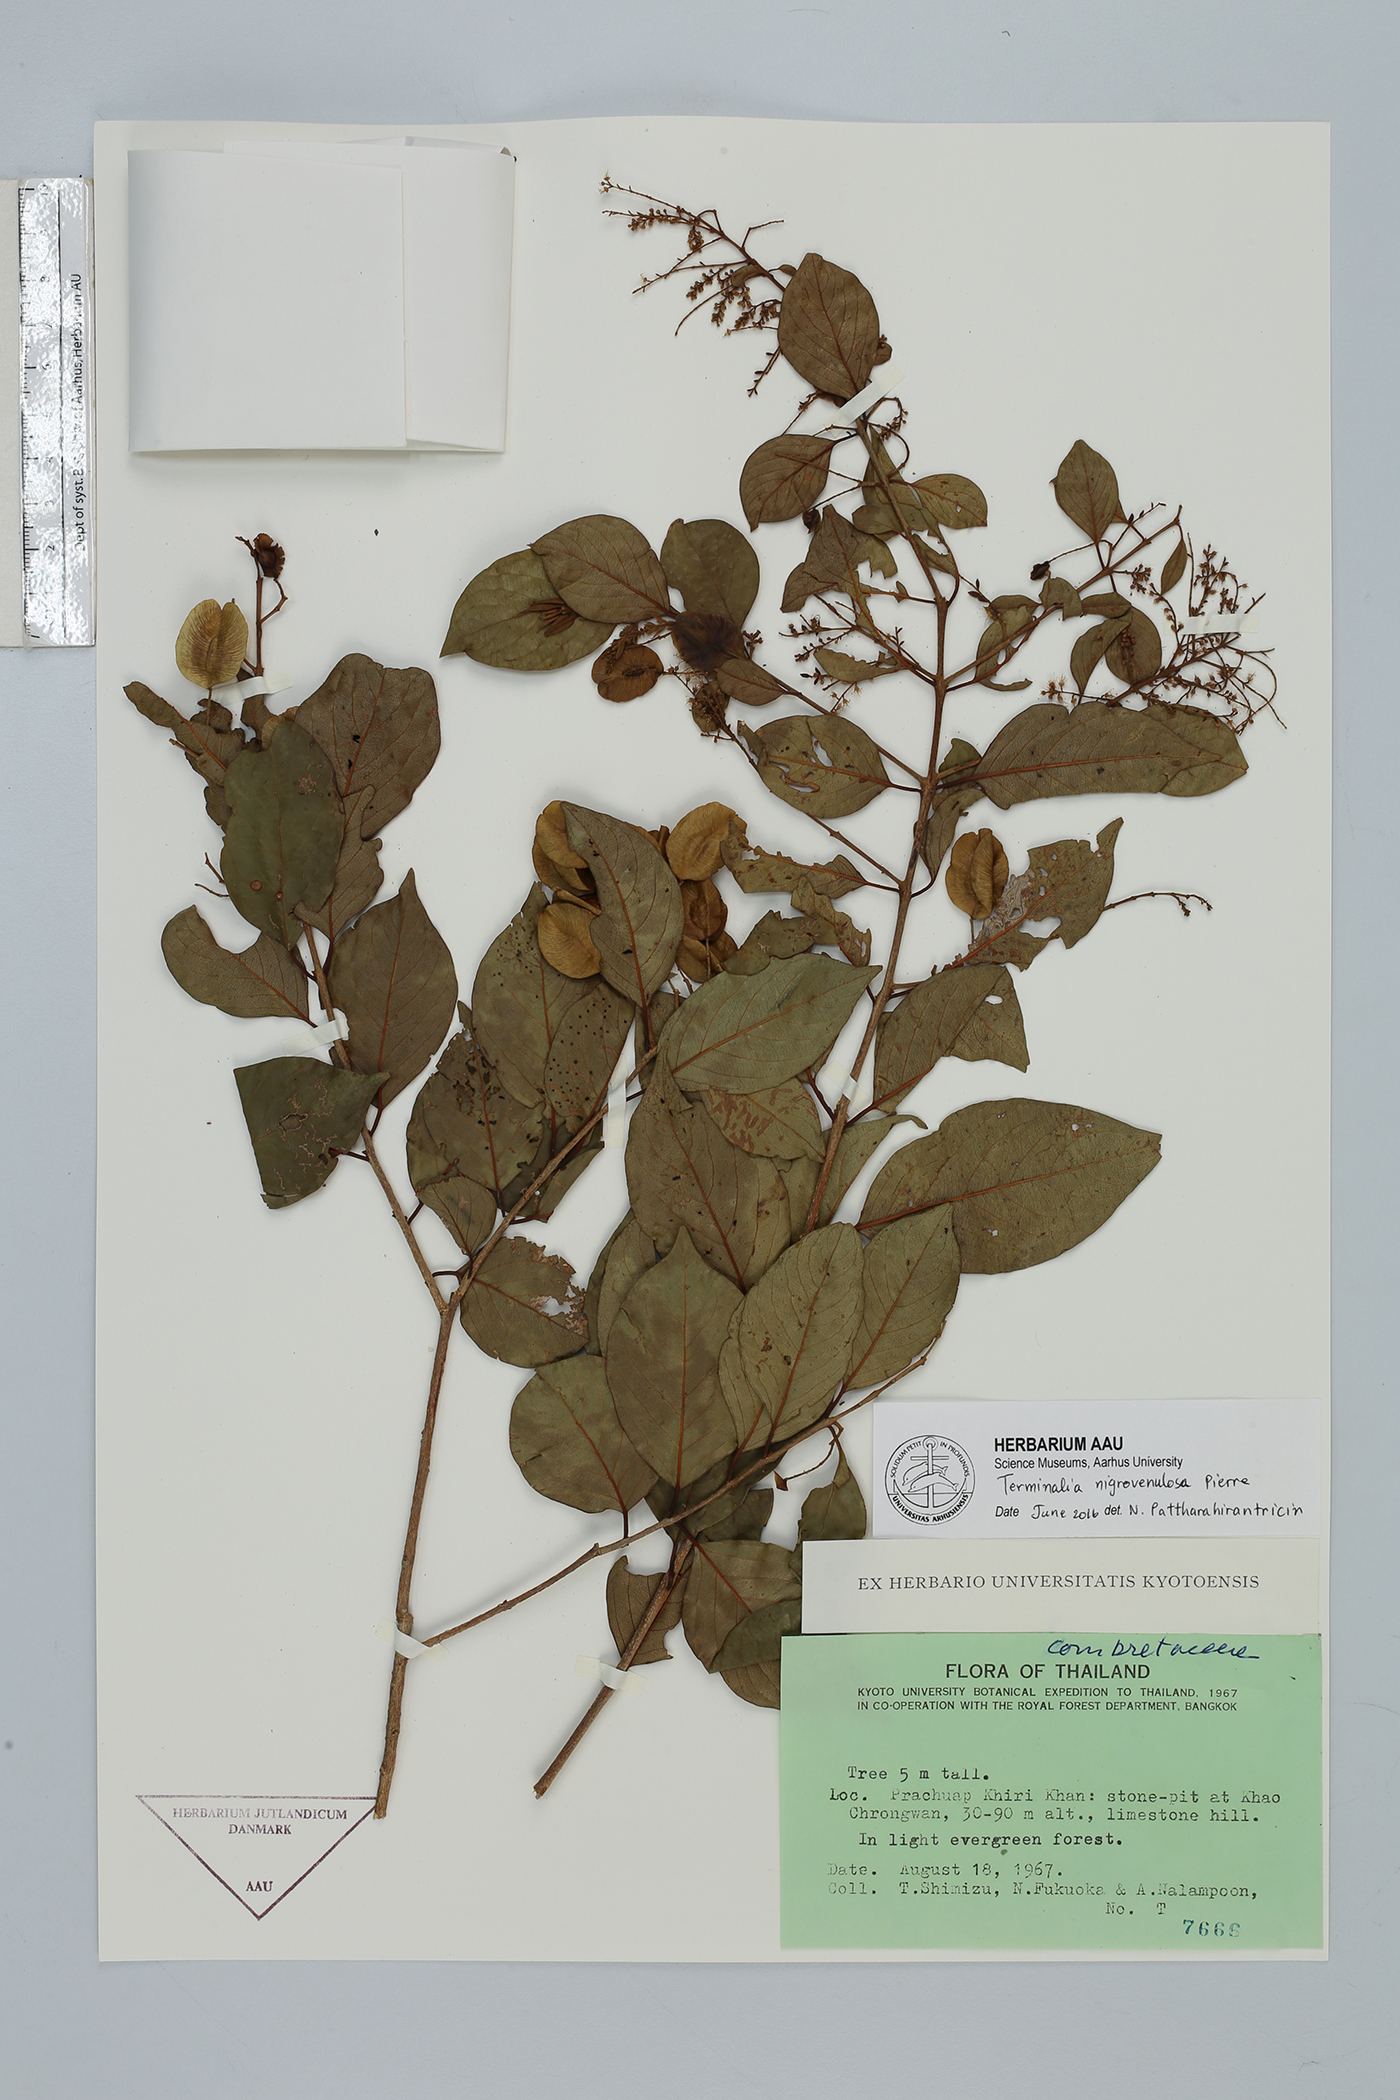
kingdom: Plantae
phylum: Tracheophyta
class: Magnoliopsida
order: Myrtales
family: Combretaceae
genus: Terminalia
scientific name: Terminalia triptera
